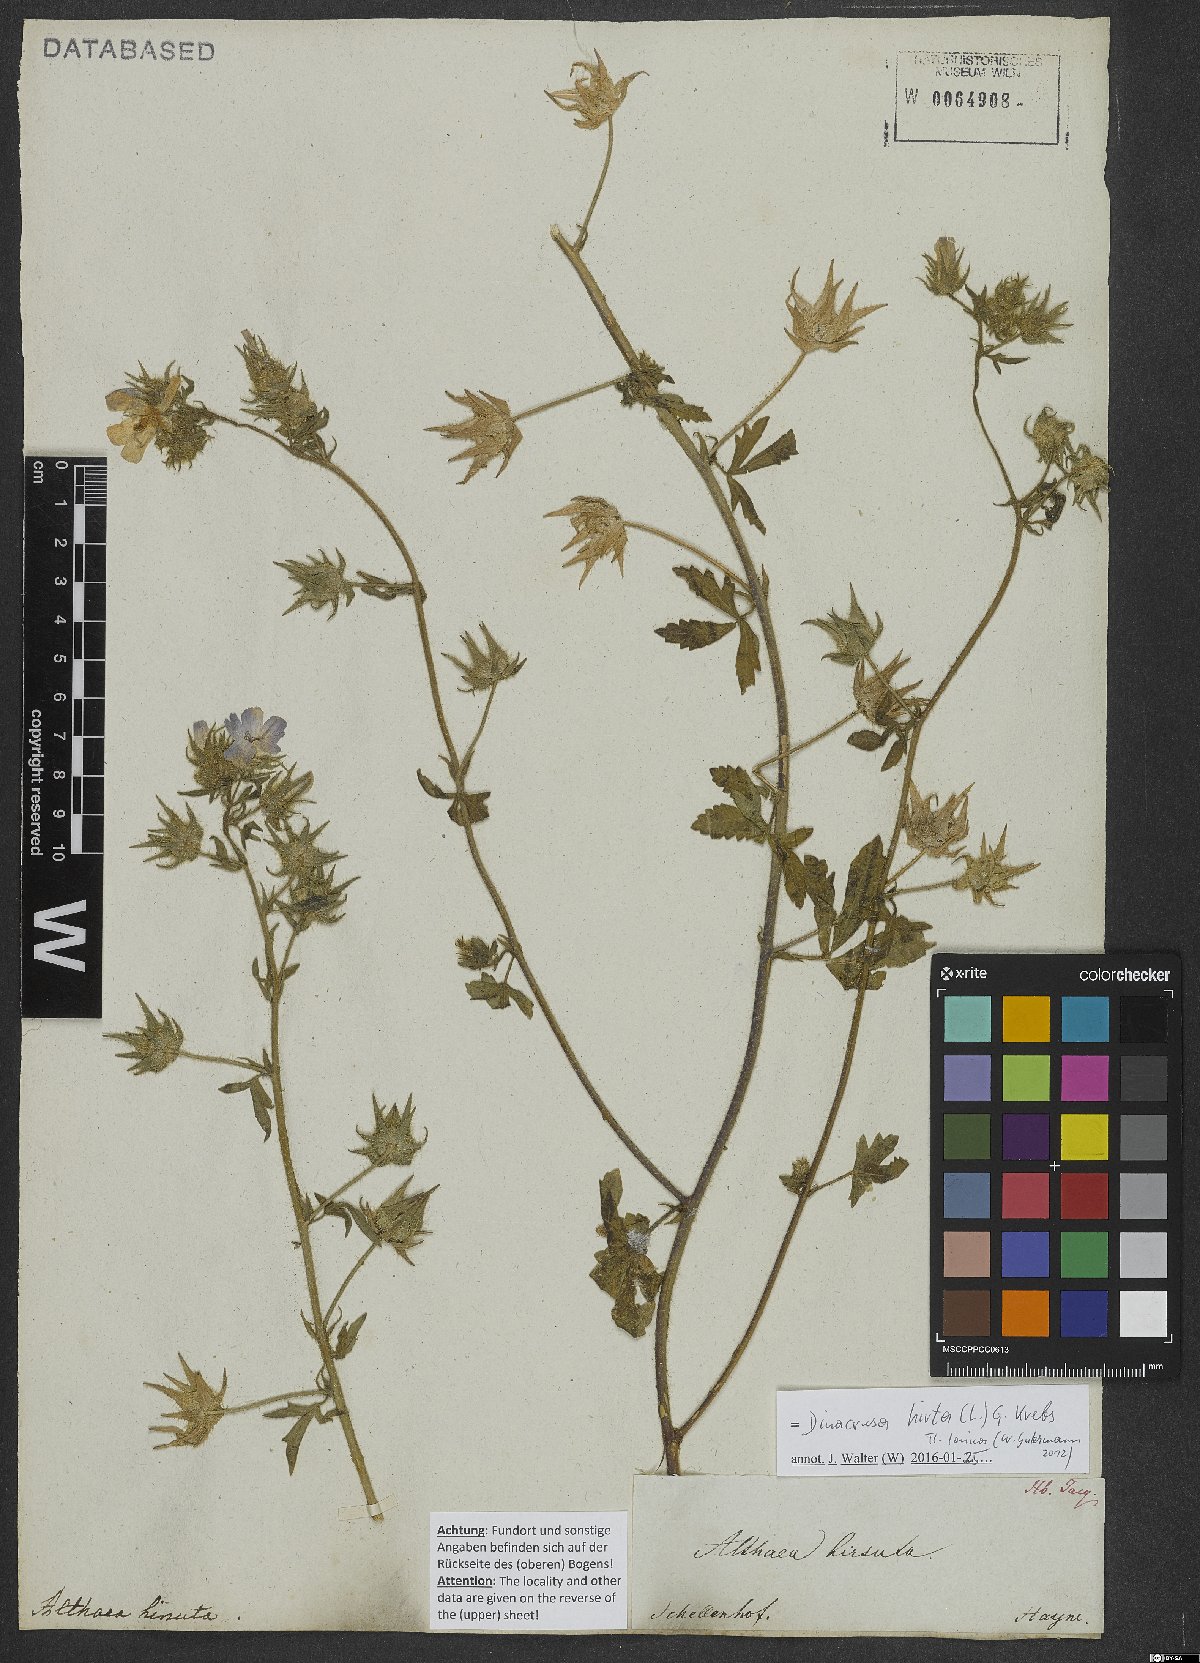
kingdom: Plantae
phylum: Tracheophyta
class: Magnoliopsida
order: Malvales
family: Malvaceae
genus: Althaea
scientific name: Althaea hirsuta
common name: Rough marsh-mallow
